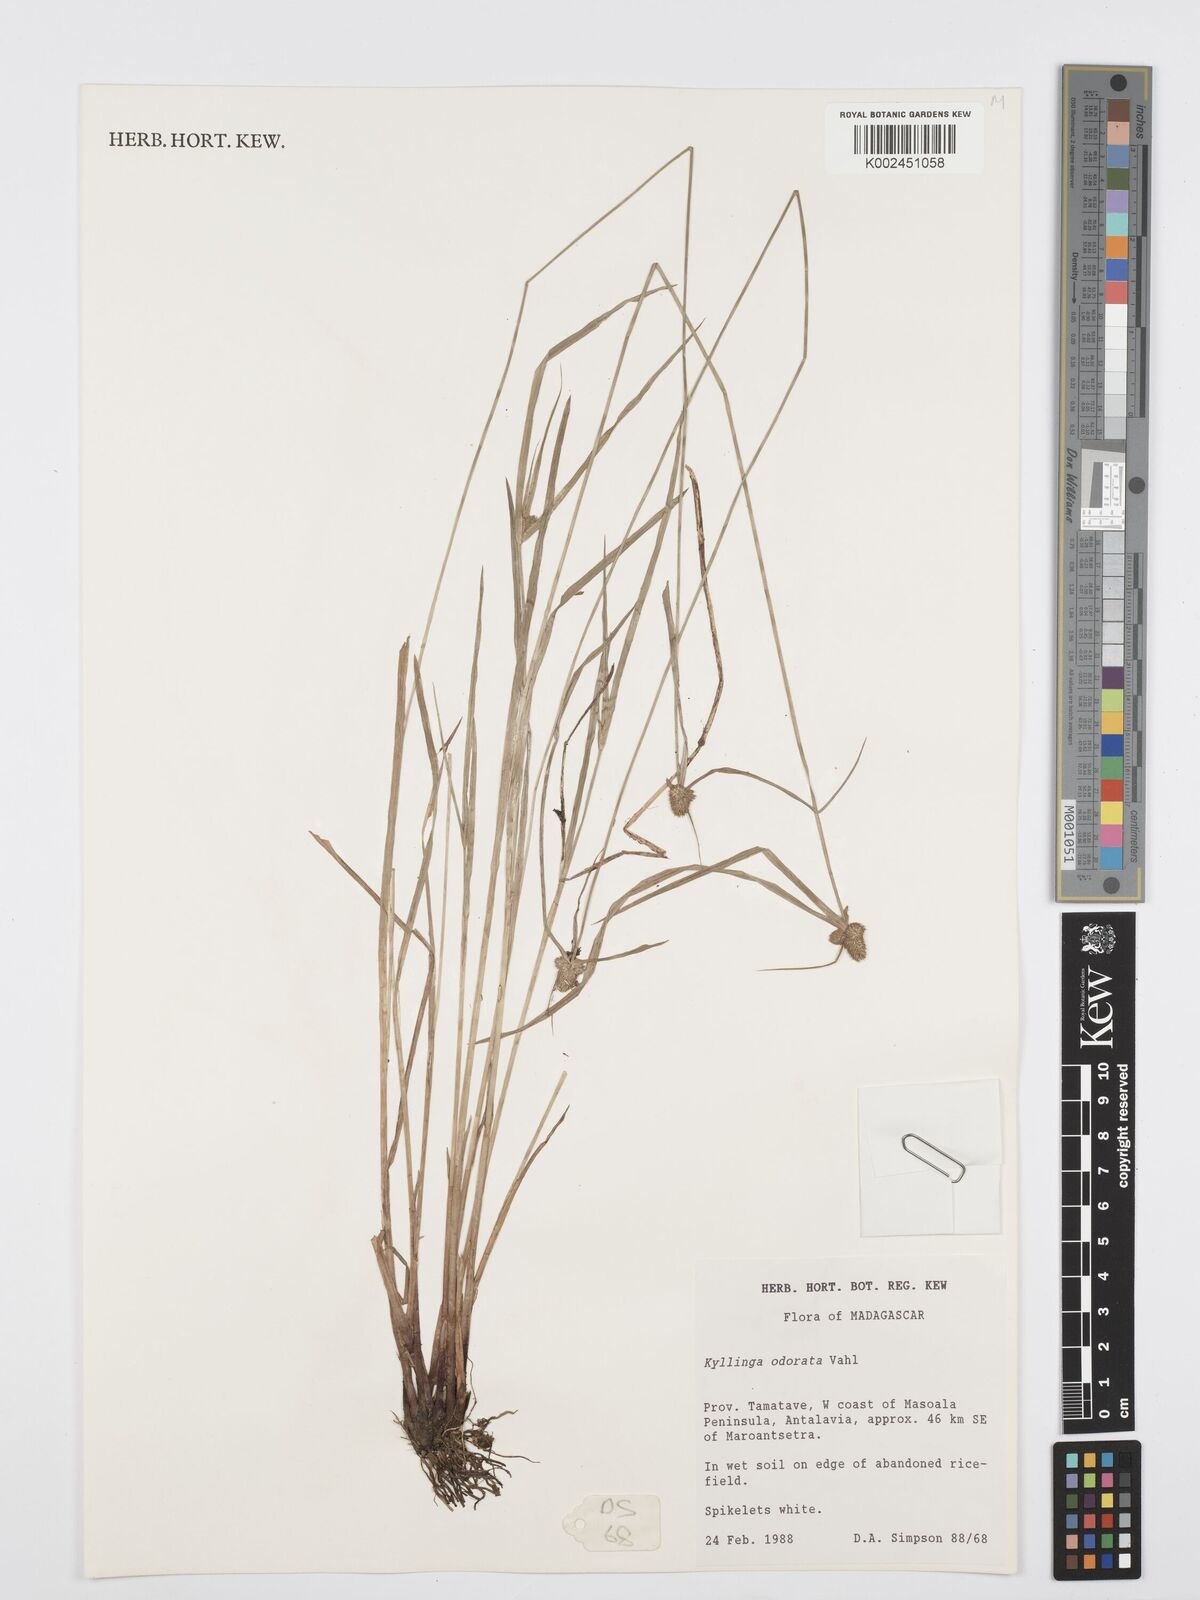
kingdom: Plantae
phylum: Tracheophyta
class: Liliopsida
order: Poales
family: Cyperaceae
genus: Cyperus
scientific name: Cyperus
